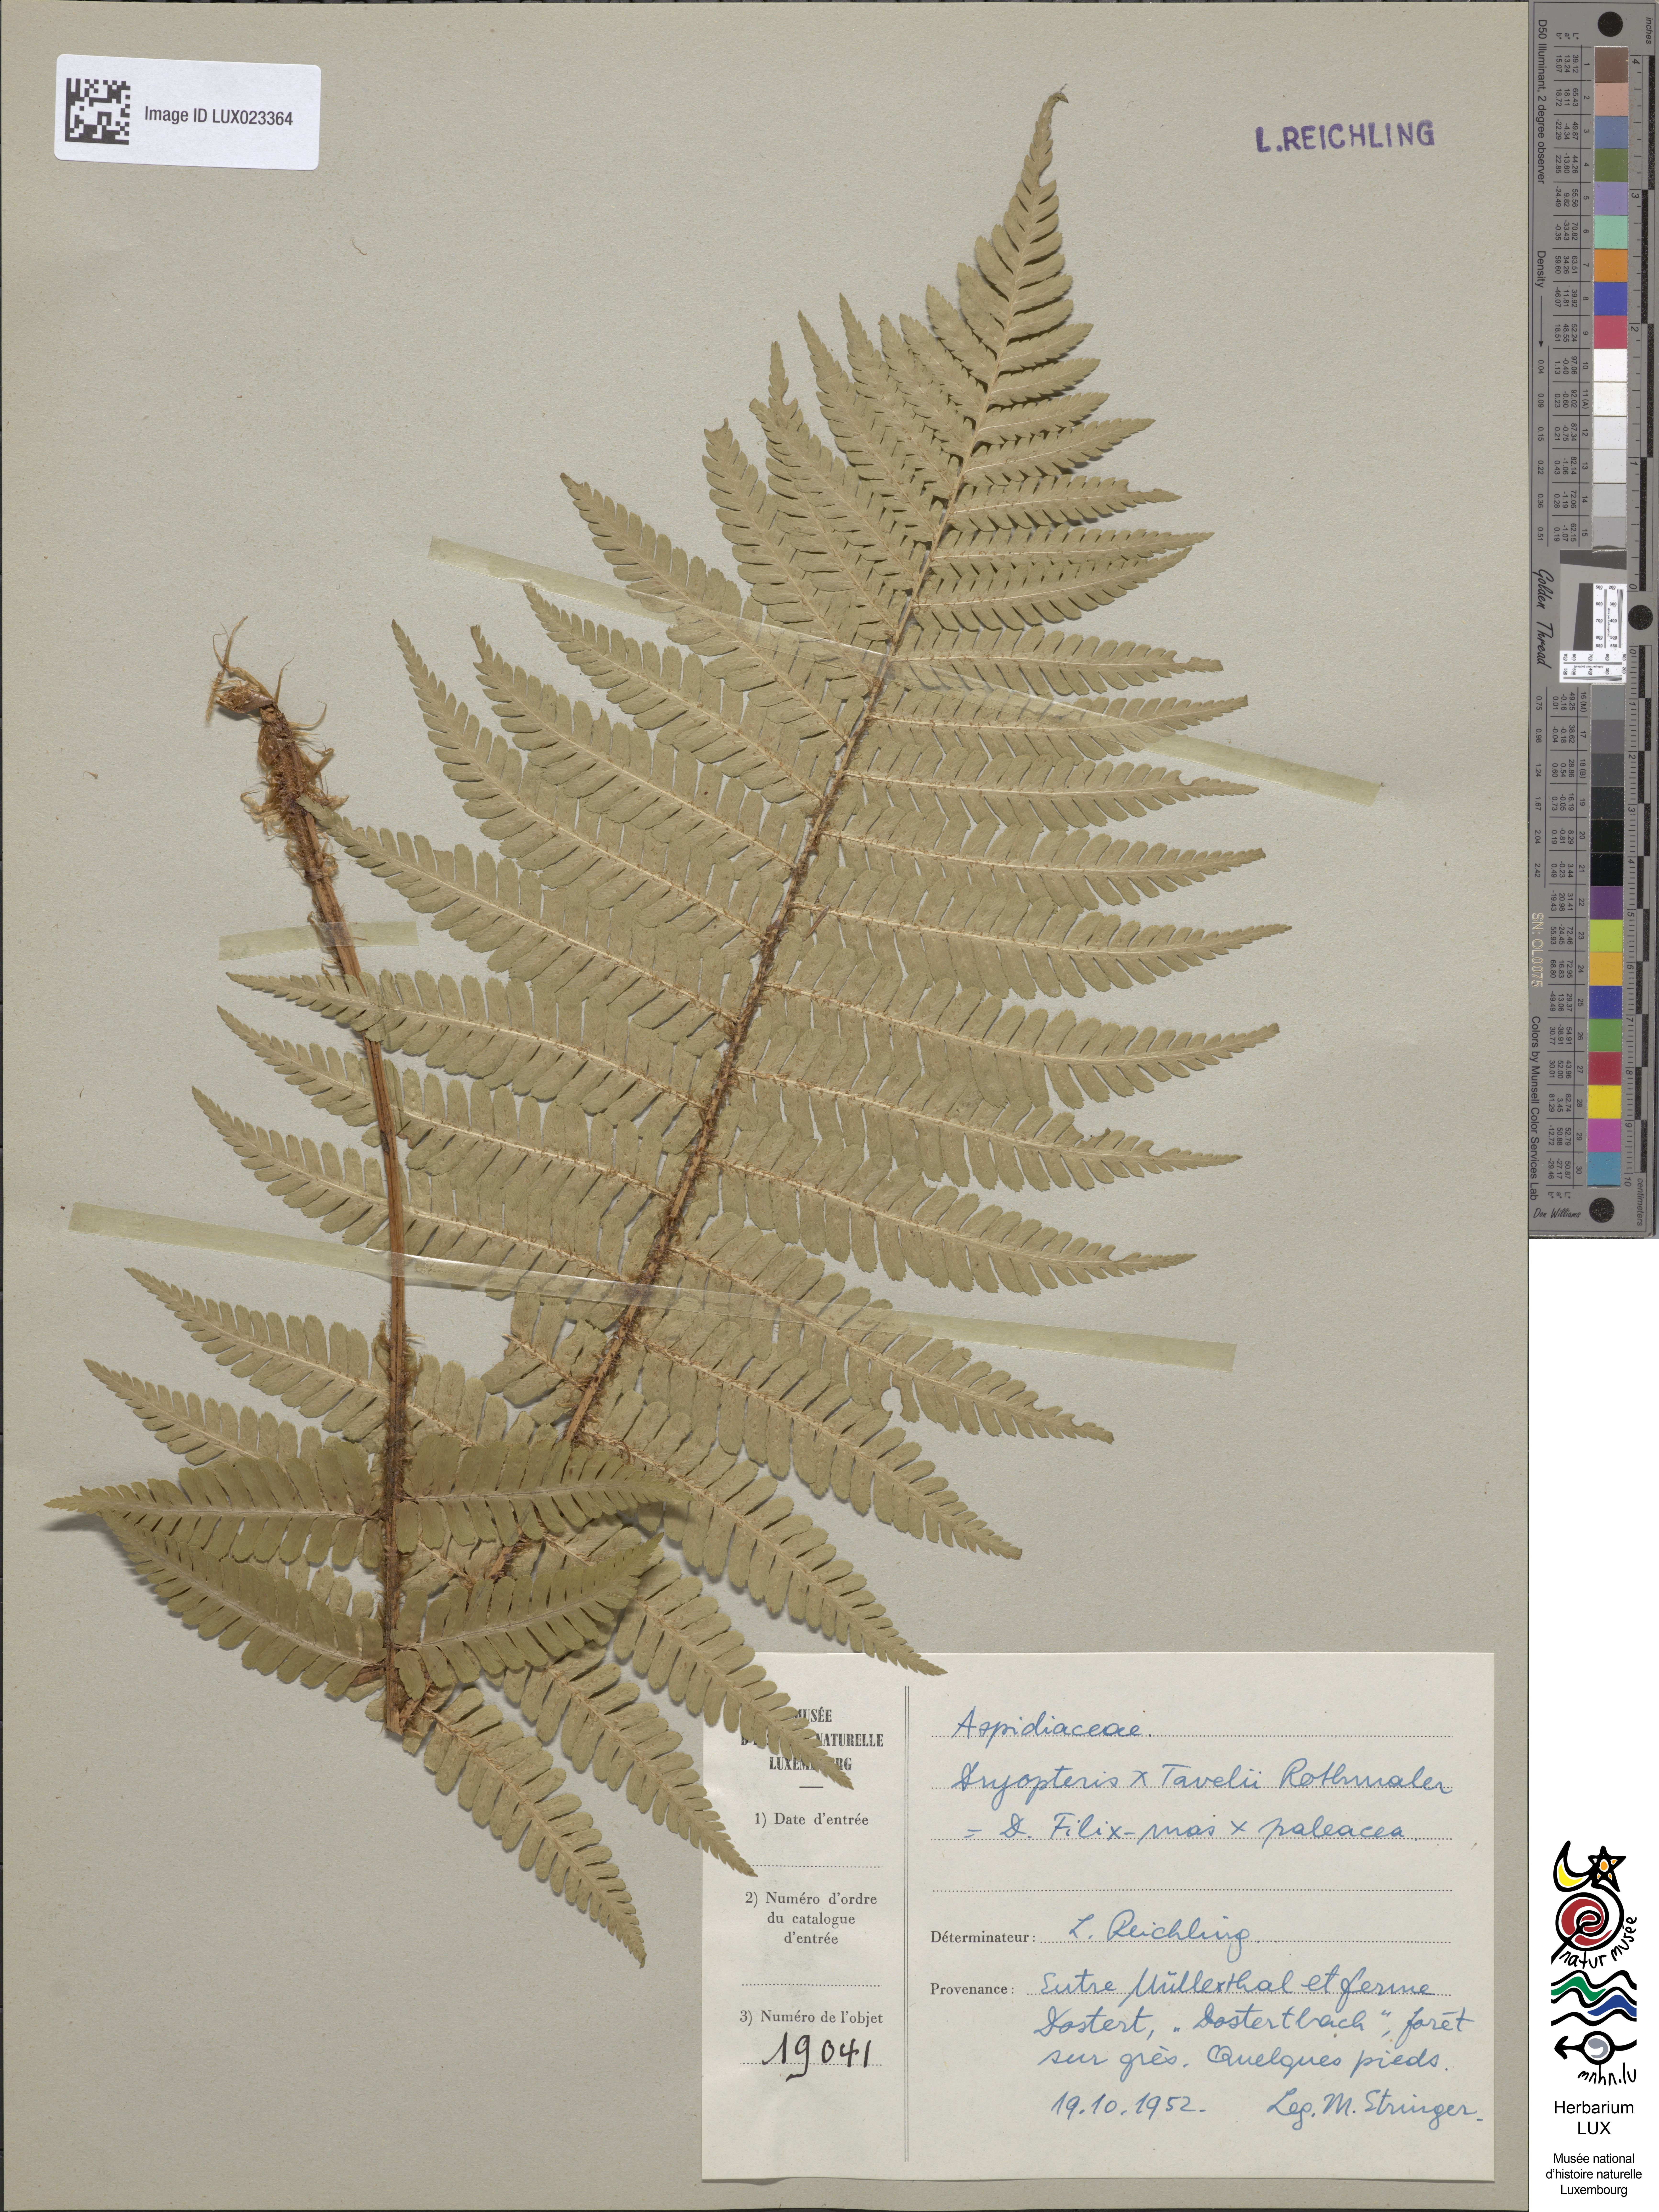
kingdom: Plantae
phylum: Tracheophyta
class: Polypodiopsida
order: Polypodiales
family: Dryopteridaceae
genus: Dryopteris
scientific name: Dryopteris borreri
